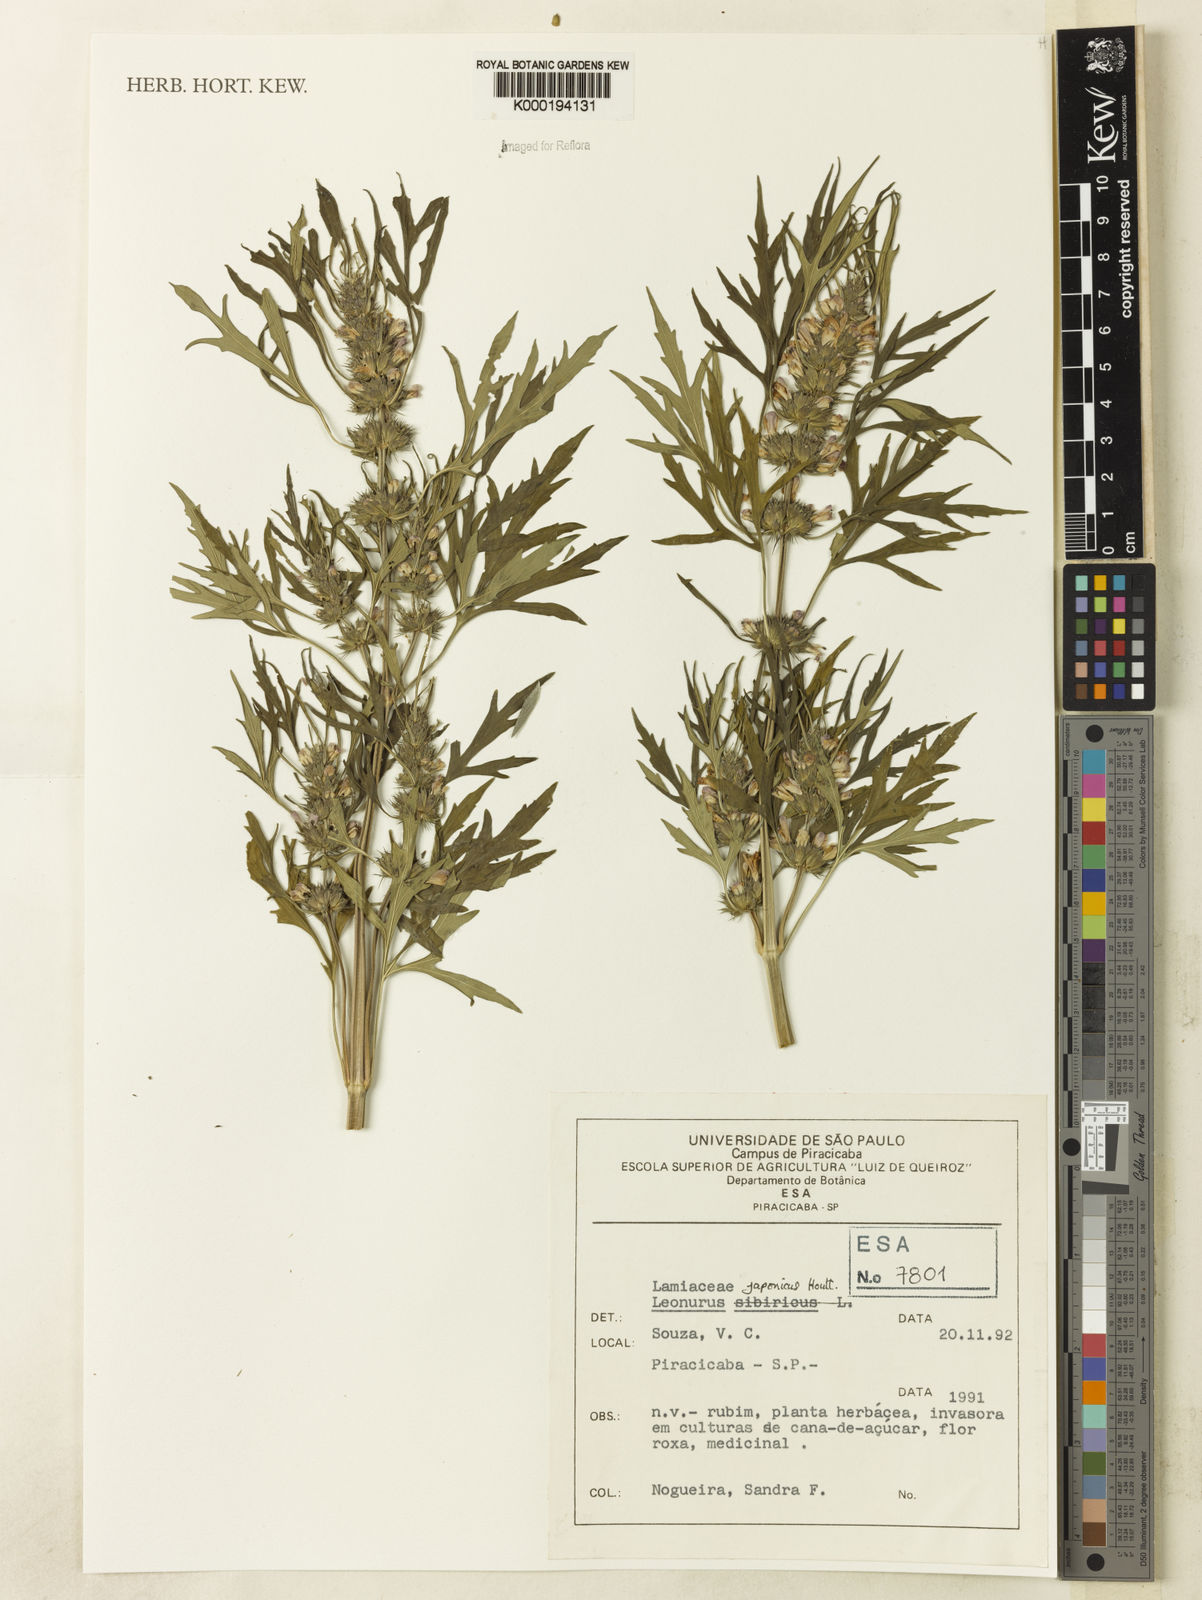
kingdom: Plantae
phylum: Tracheophyta
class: Magnoliopsida
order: Lamiales
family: Lamiaceae
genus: Leonurus
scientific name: Leonurus japonicus
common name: Honeyweed
